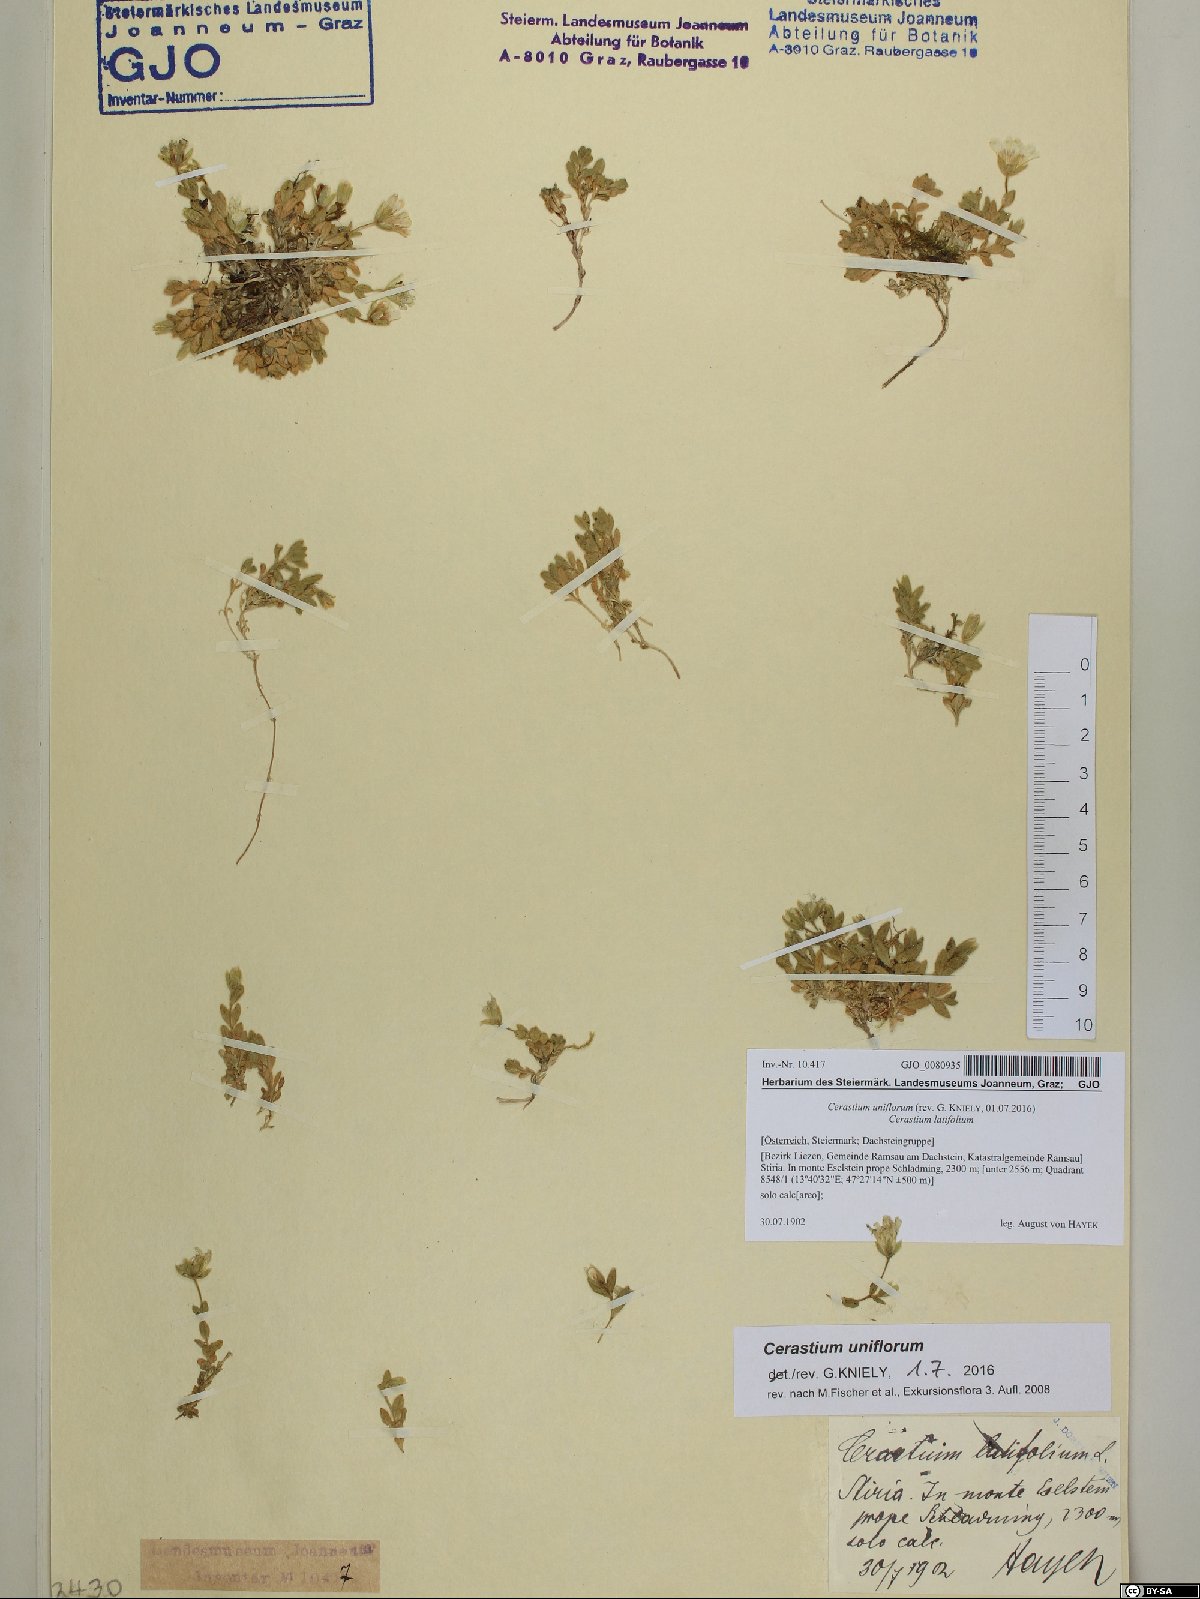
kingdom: Plantae
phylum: Tracheophyta
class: Magnoliopsida
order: Caryophyllales
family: Caryophyllaceae
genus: Cerastium
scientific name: Cerastium uniflorum
